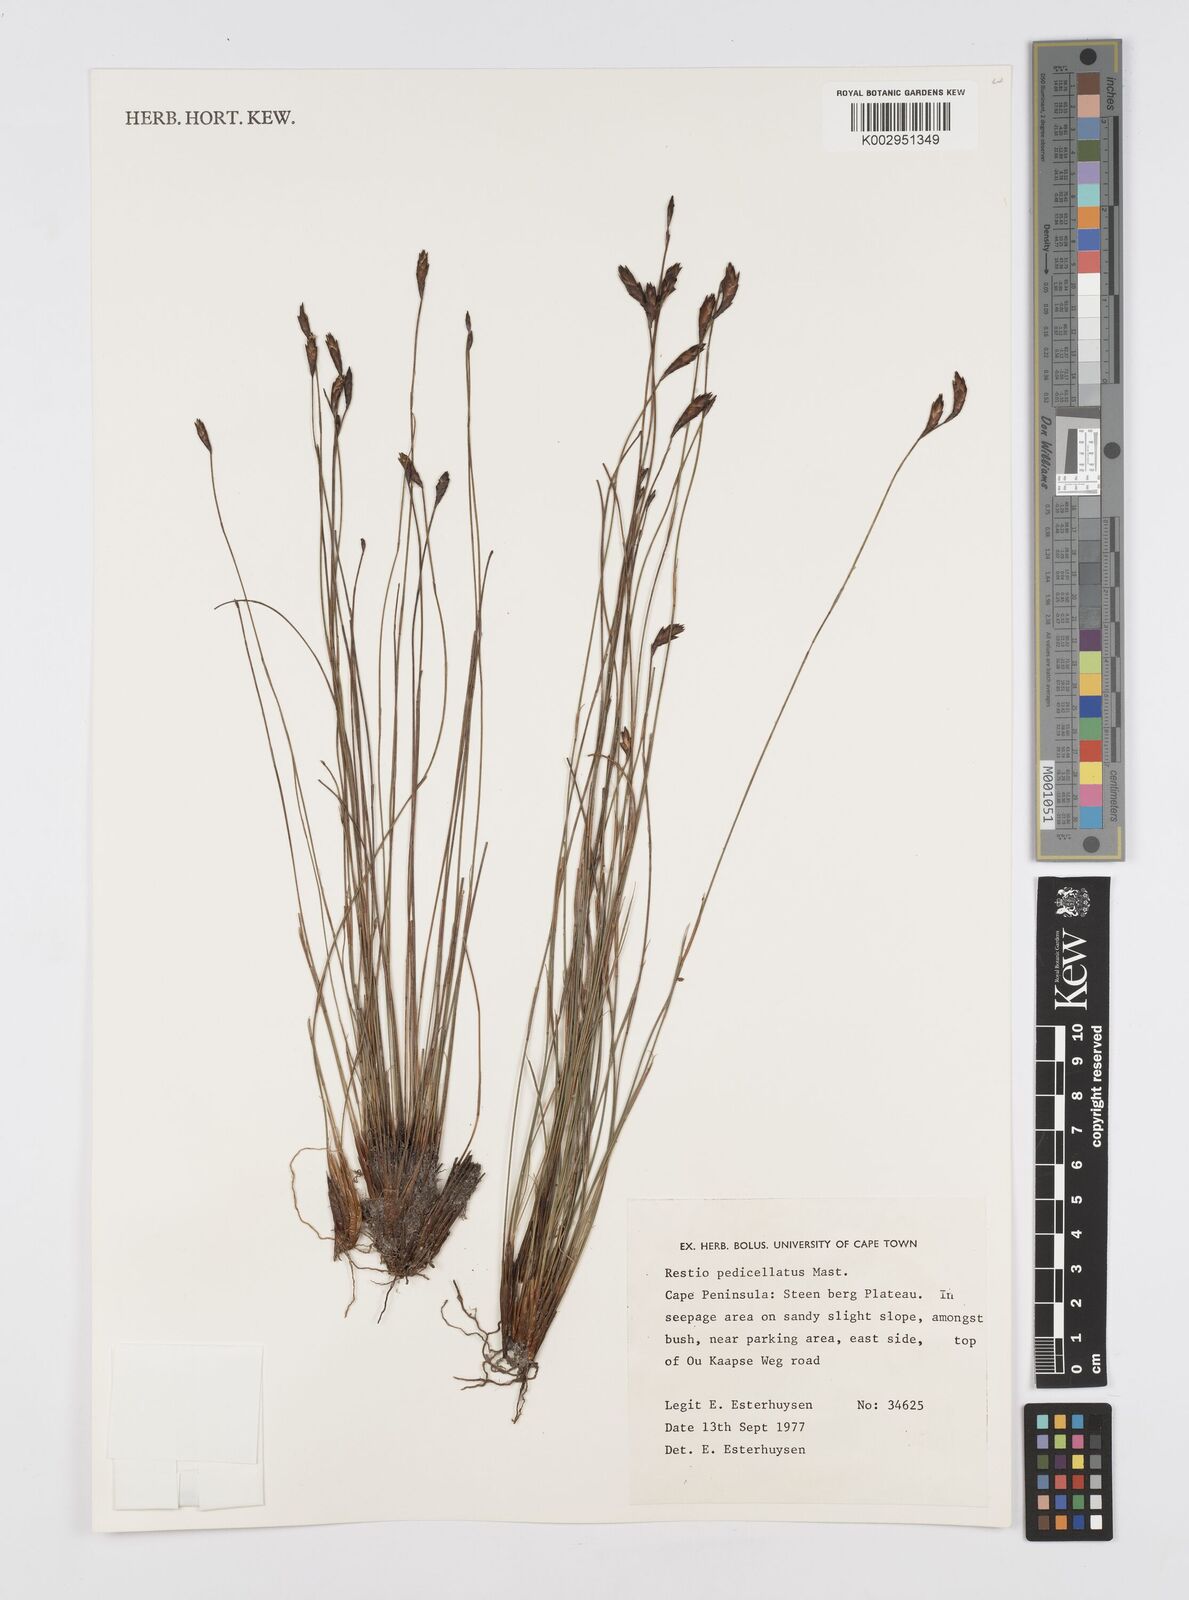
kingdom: Plantae
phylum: Tracheophyta
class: Liliopsida
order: Poales
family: Restionaceae
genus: Restio
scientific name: Restio pedicellatus
